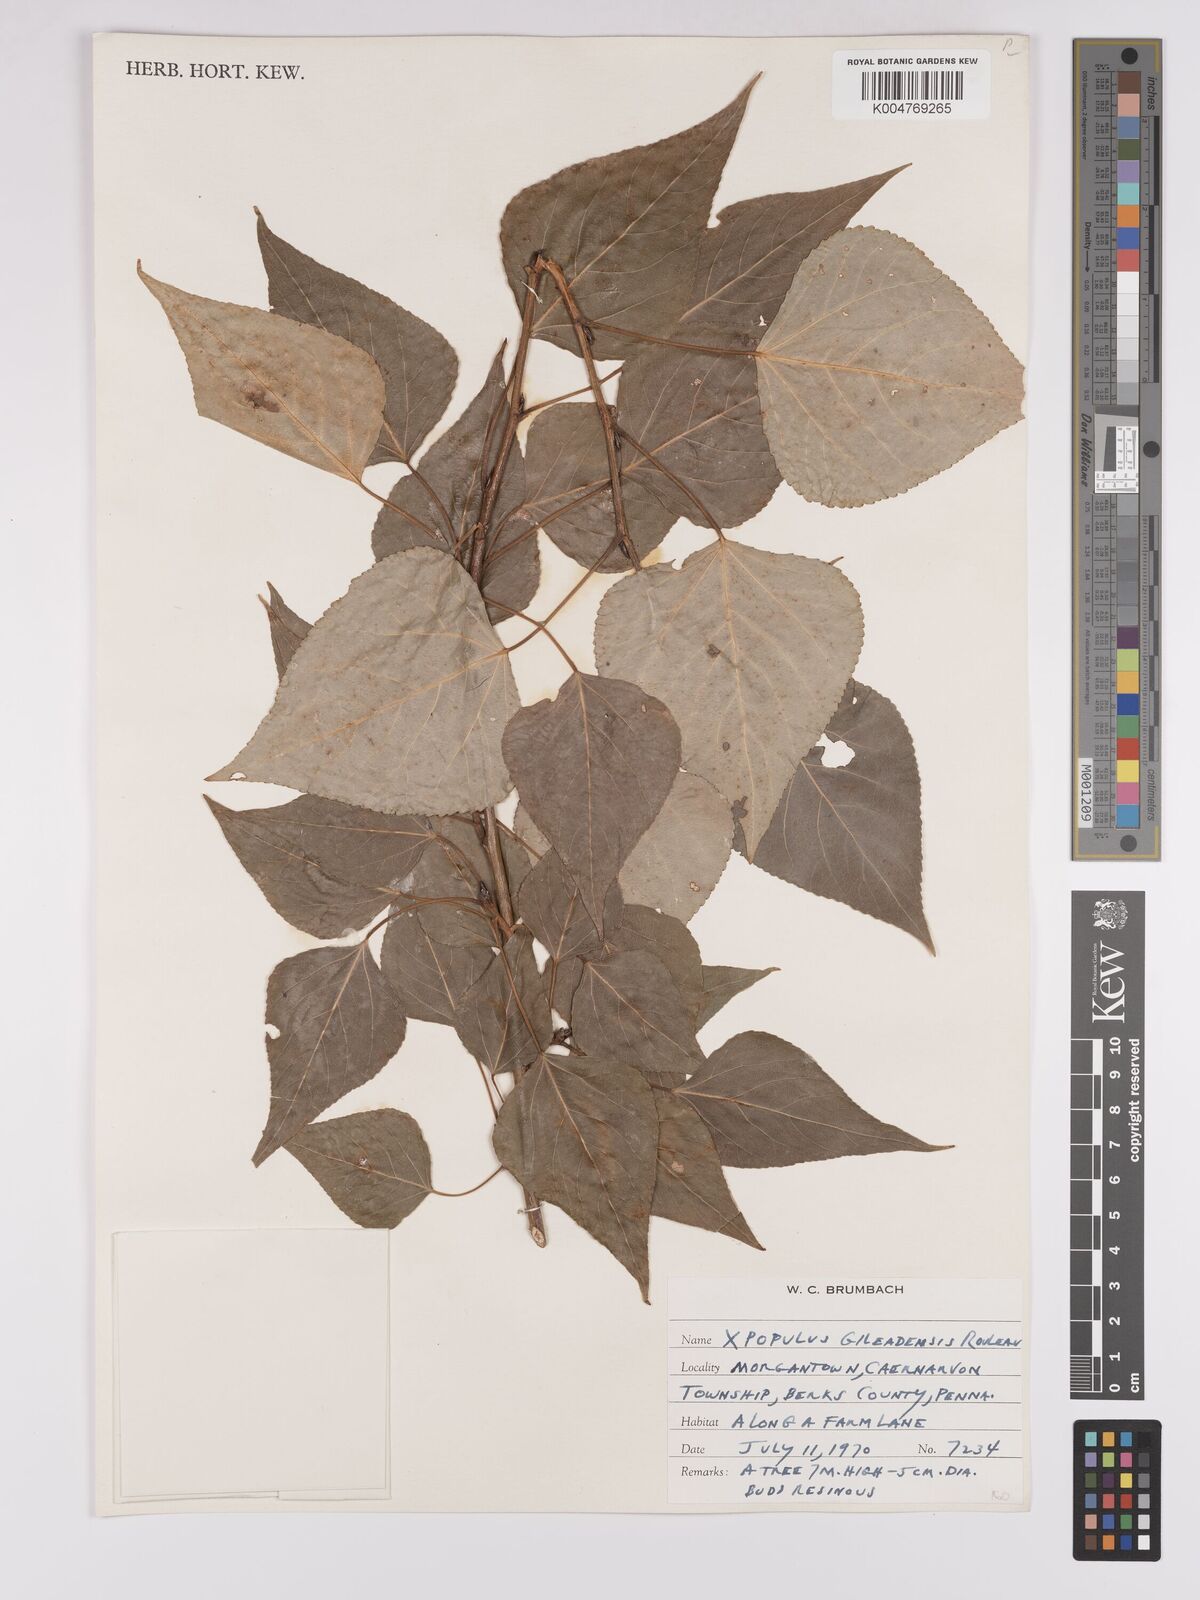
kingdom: Plantae
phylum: Tracheophyta
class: Magnoliopsida
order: Malpighiales
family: Salicaceae
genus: Populus
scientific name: Populus jackii
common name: Balm-of-gilead
